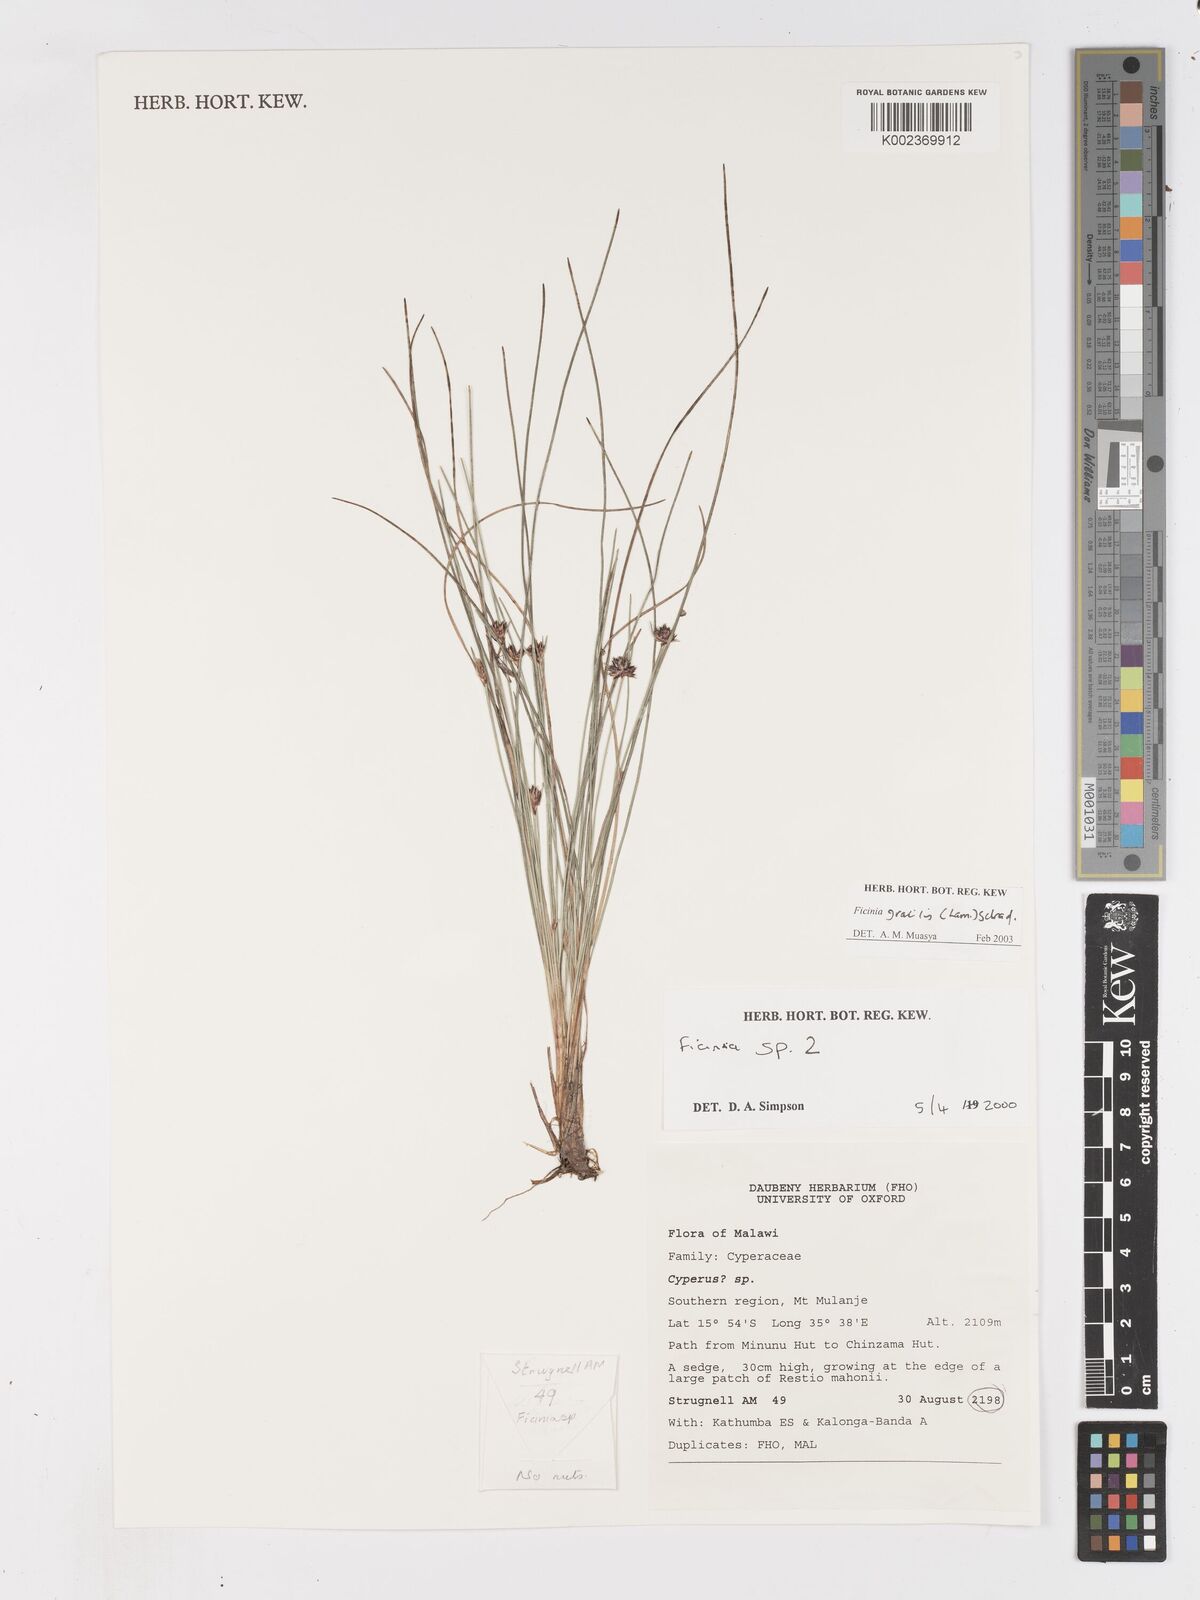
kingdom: Plantae
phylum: Tracheophyta
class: Liliopsida
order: Poales
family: Cyperaceae
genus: Ficinia
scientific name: Ficinia stolonifera
